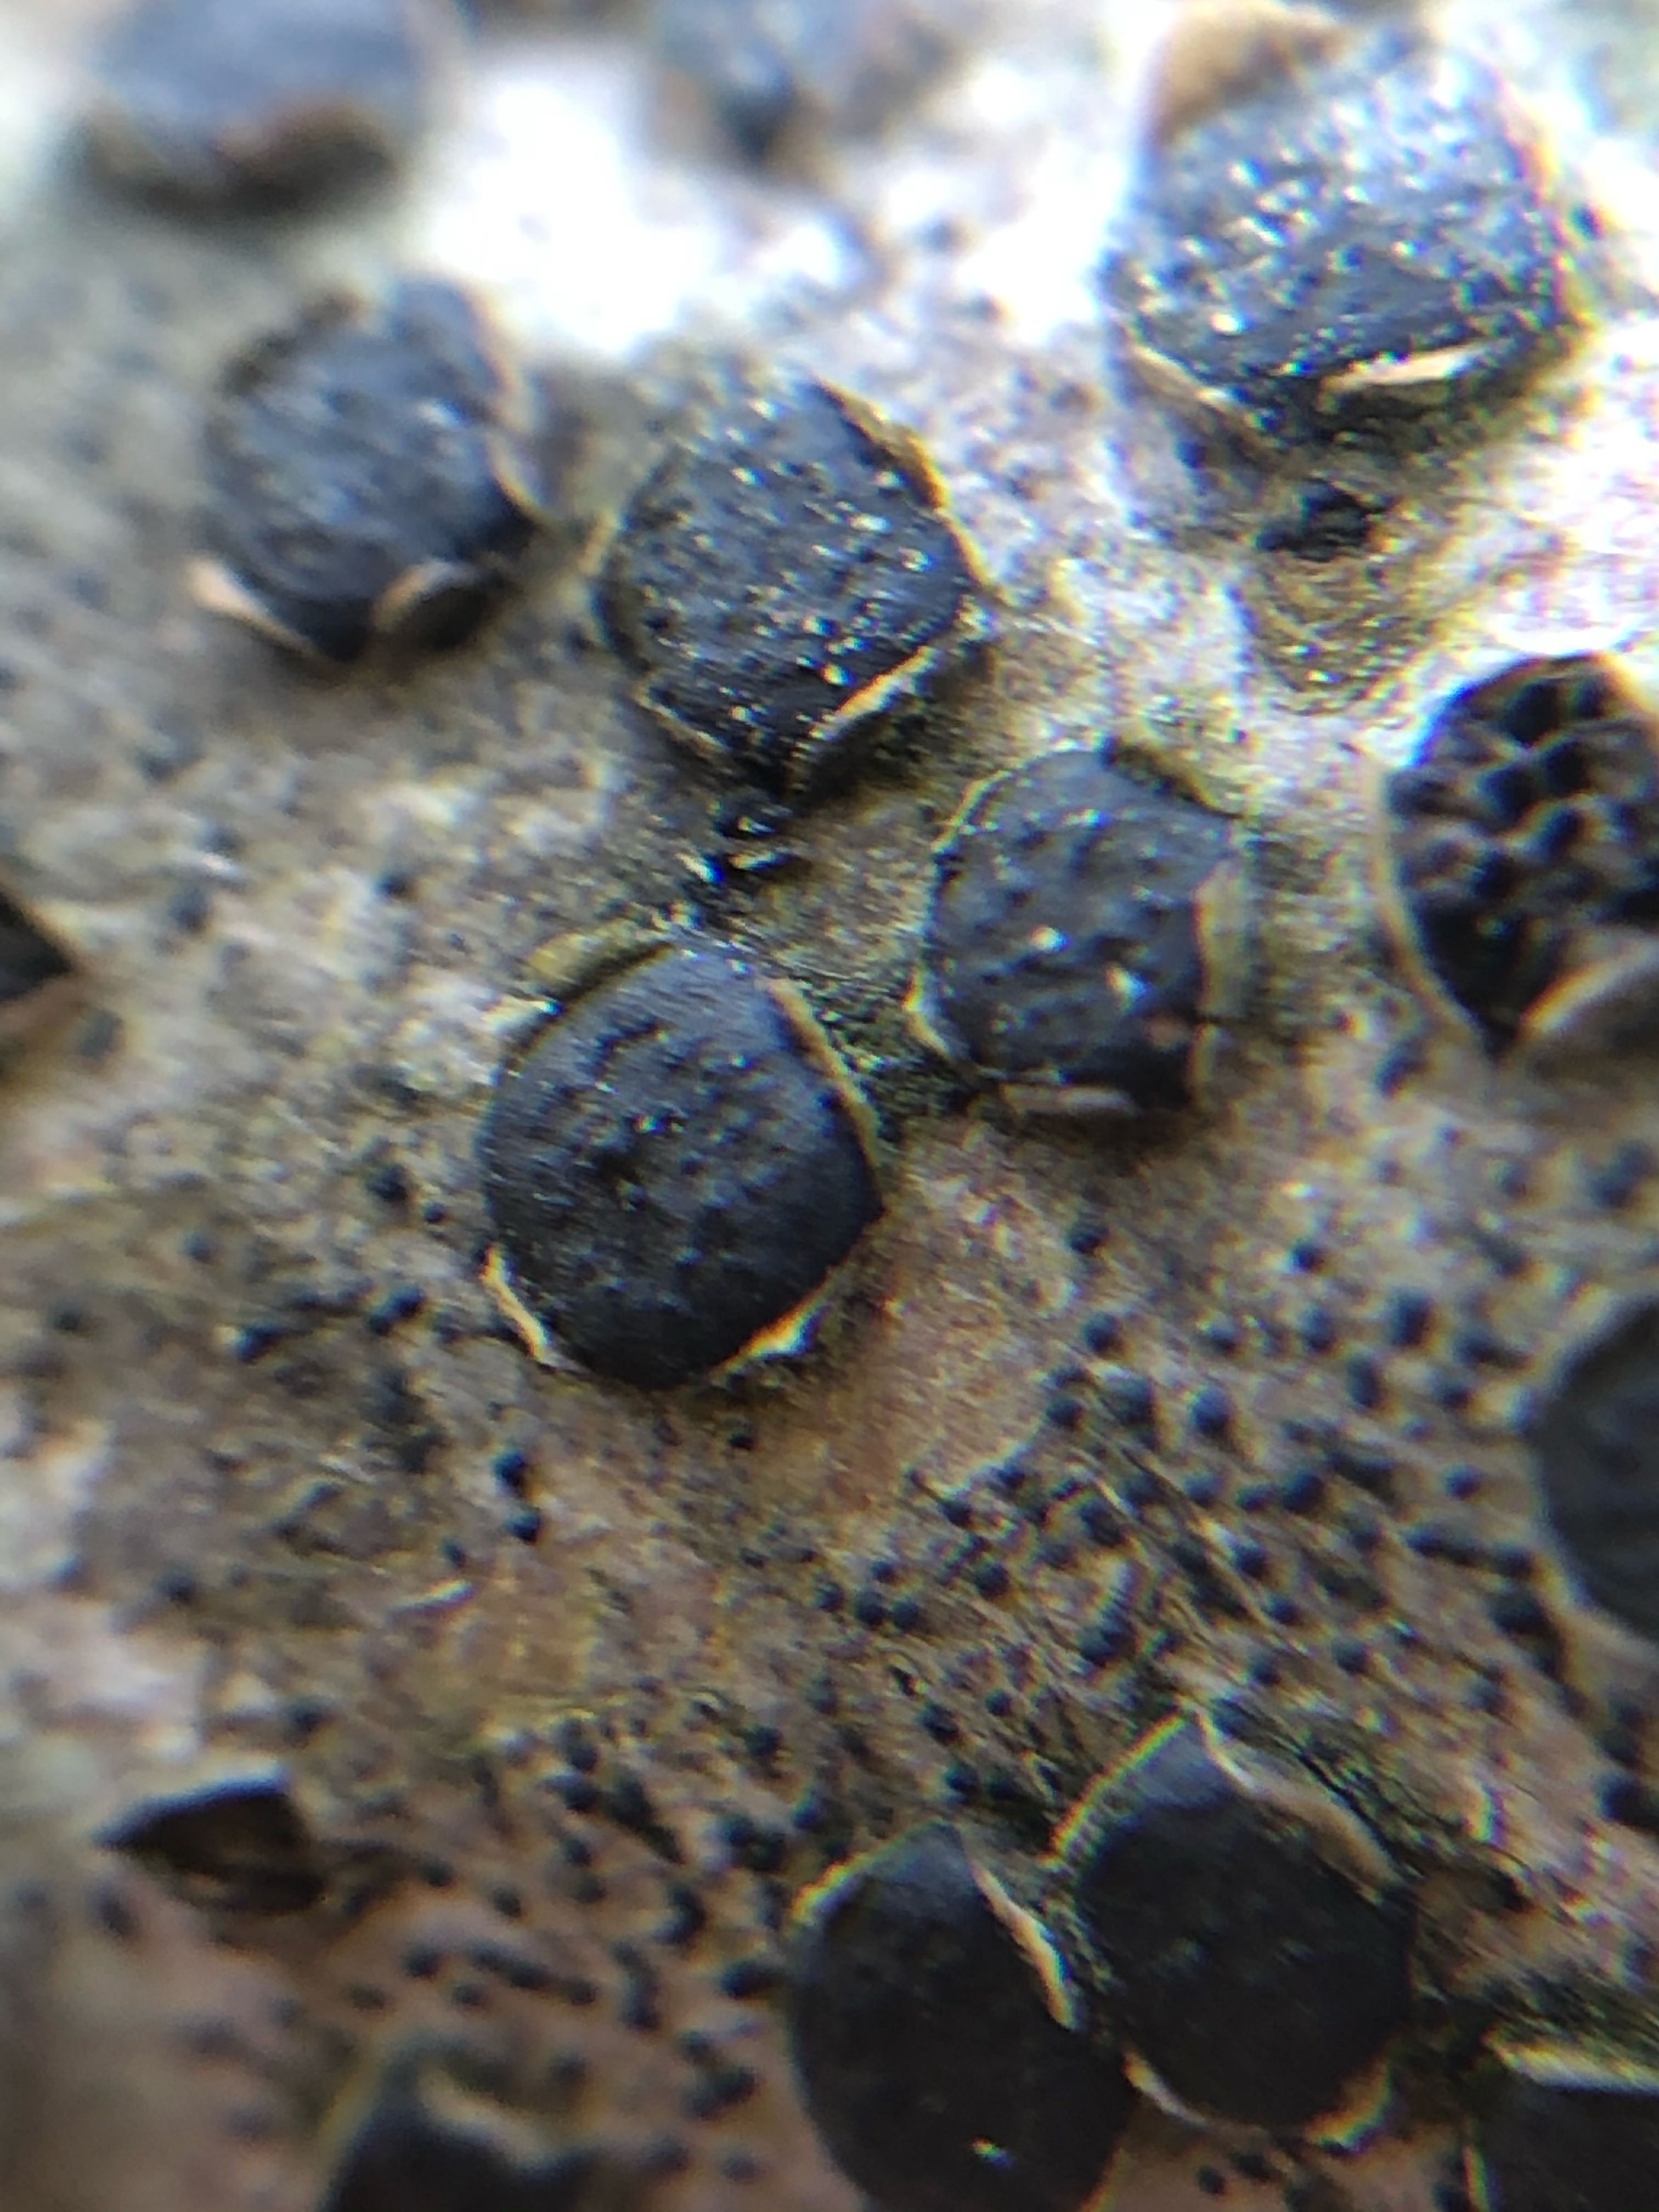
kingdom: Fungi
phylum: Ascomycota
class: Sordariomycetes
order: Xylariales
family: Diatrypaceae
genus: Diatrype
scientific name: Diatrype disciformis
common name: kant-kulskorpe
